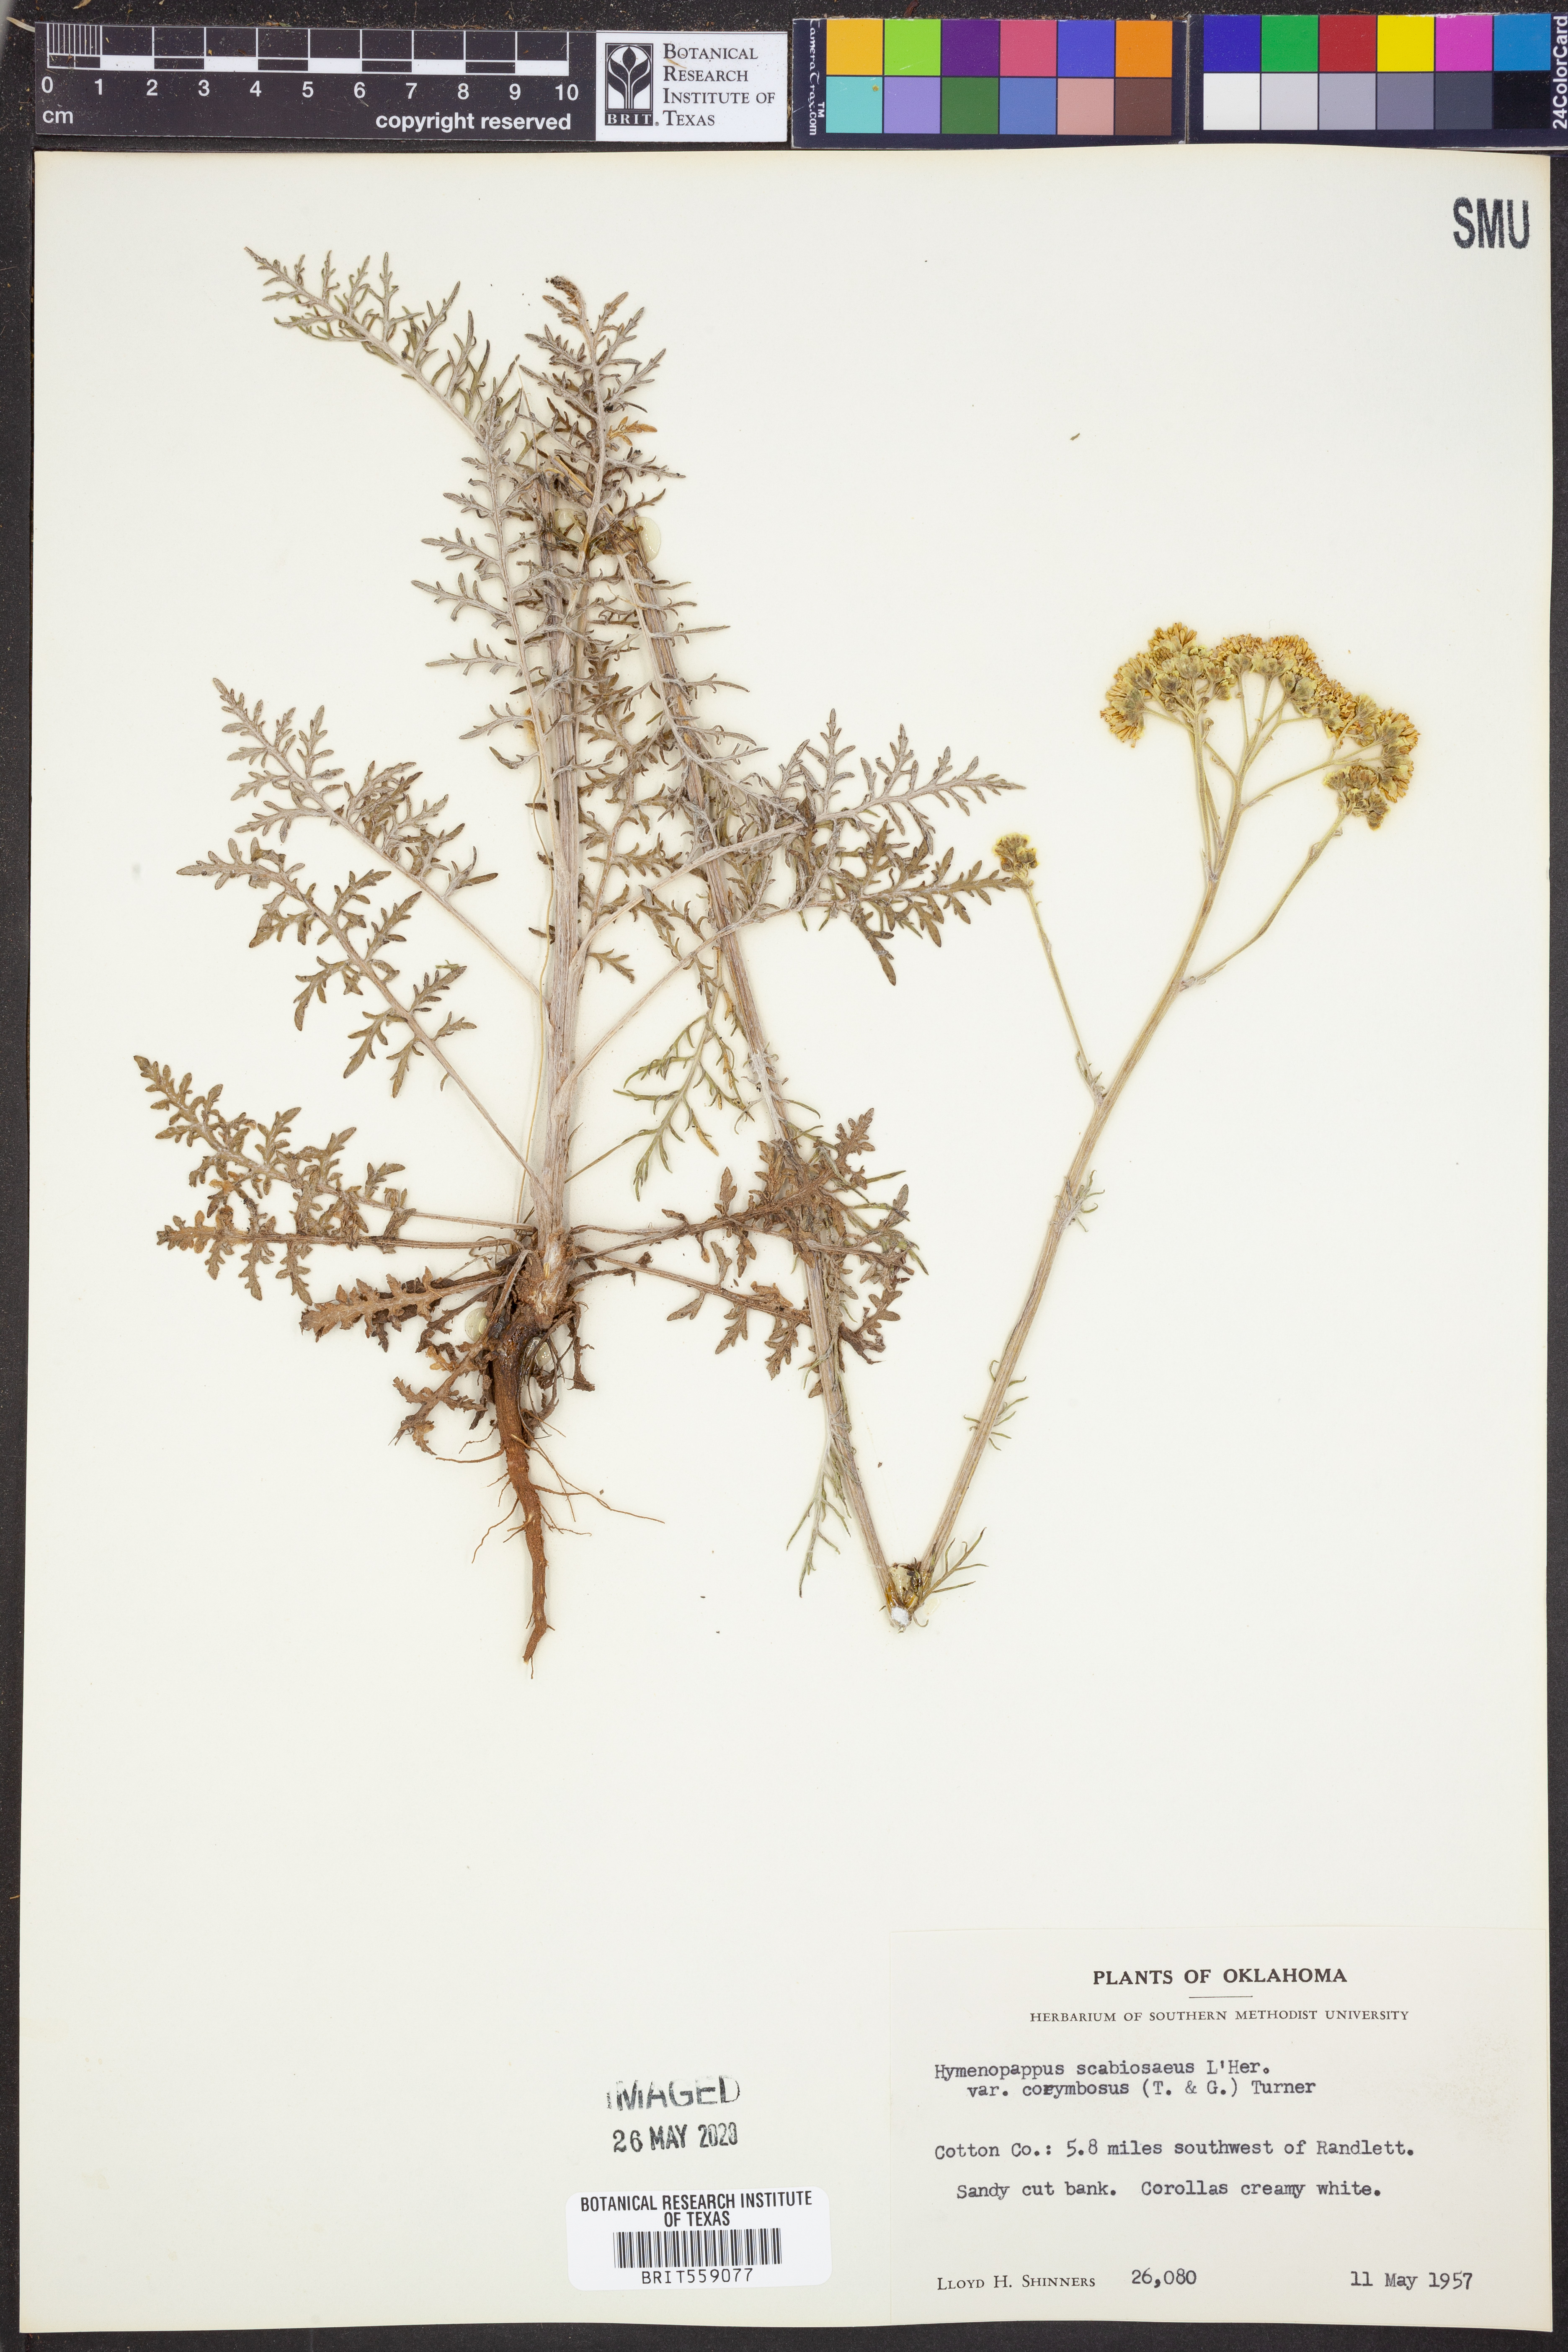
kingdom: Plantae
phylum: Tracheophyta
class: Magnoliopsida
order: Asterales
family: Asteraceae
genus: Hymenopappus
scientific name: Hymenopappus scabiosaeus
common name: Carolina woollywhite
